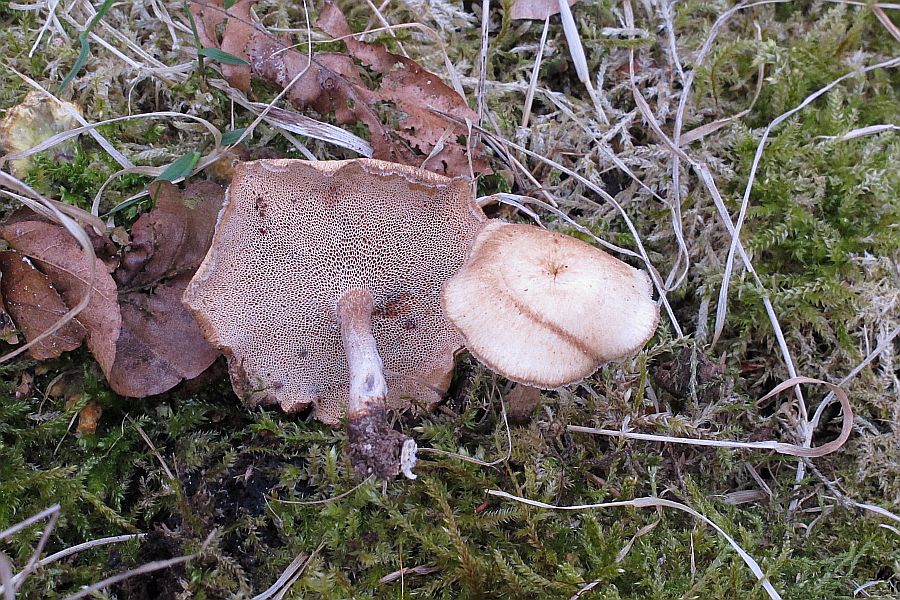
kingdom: Fungi
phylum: Basidiomycota
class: Agaricomycetes
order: Polyporales
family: Polyporaceae
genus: Lentinus
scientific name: Lentinus brumalis
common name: vinter-stilkporesvamp
